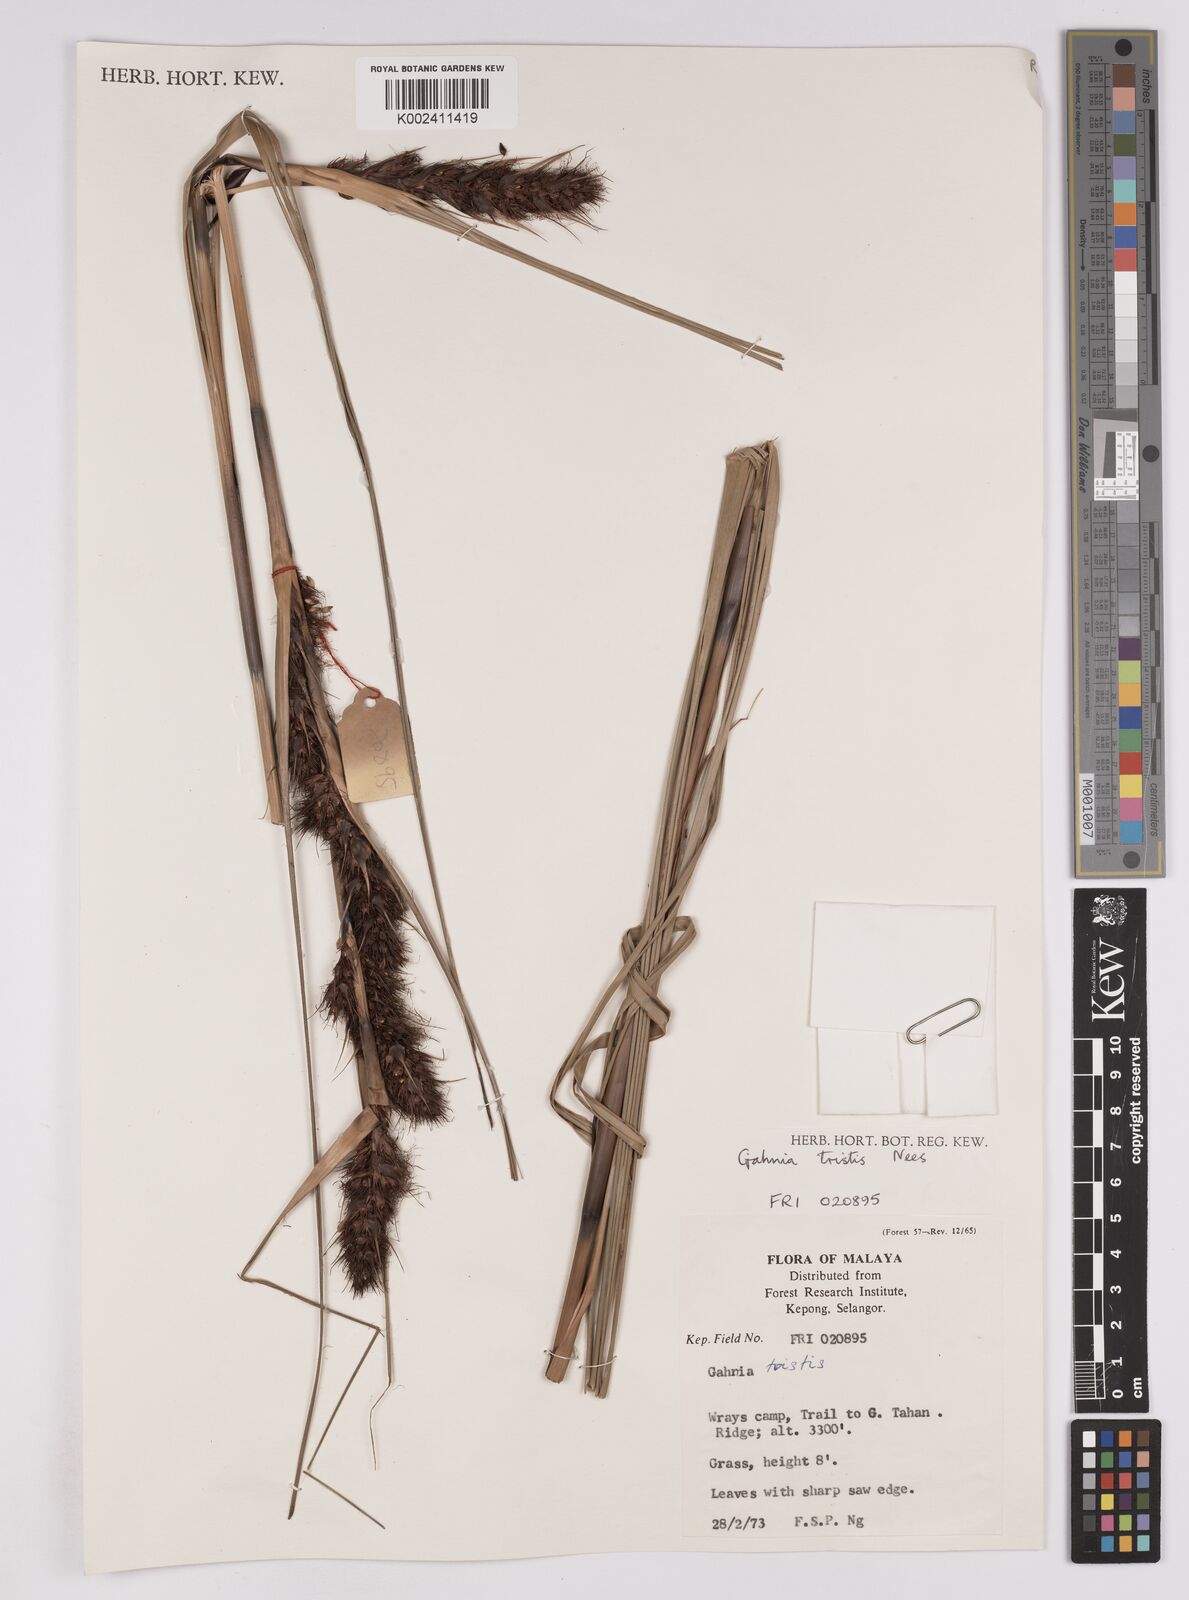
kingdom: Plantae
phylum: Tracheophyta
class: Liliopsida
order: Poales
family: Cyperaceae
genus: Gahnia
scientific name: Gahnia tristis
